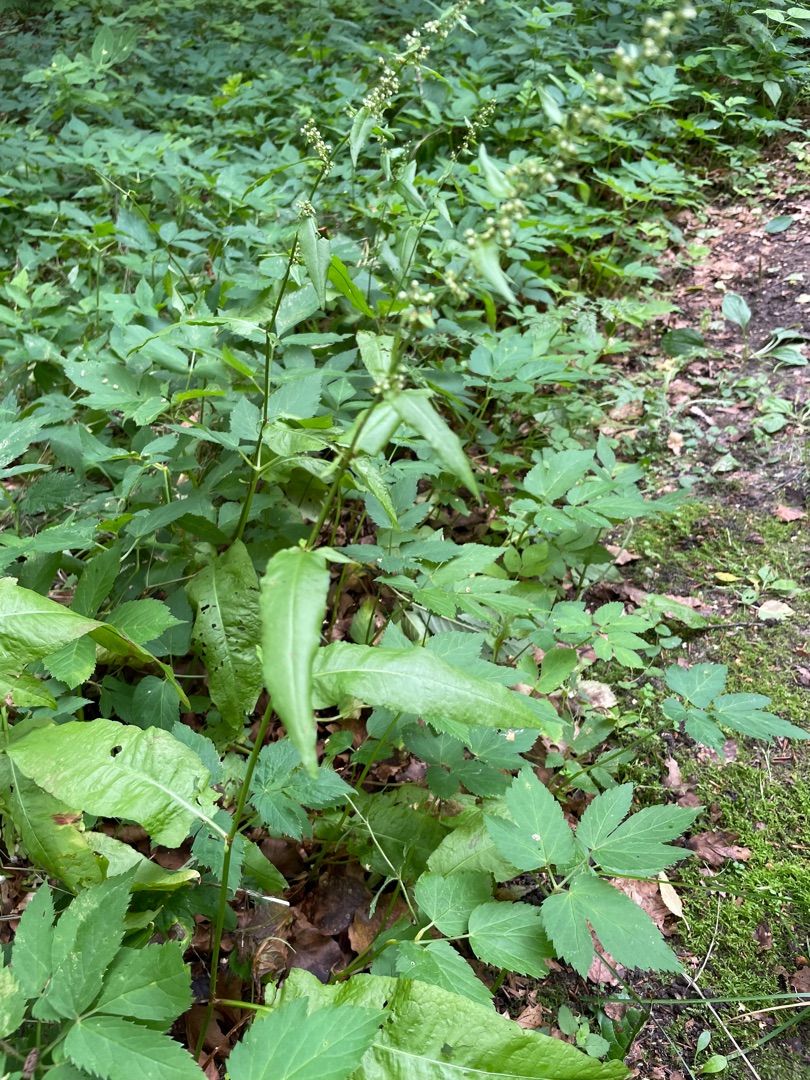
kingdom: Plantae
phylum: Tracheophyta
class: Magnoliopsida
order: Caryophyllales
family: Polygonaceae
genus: Rumex
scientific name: Rumex sanguineus
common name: Skov-skræppe
